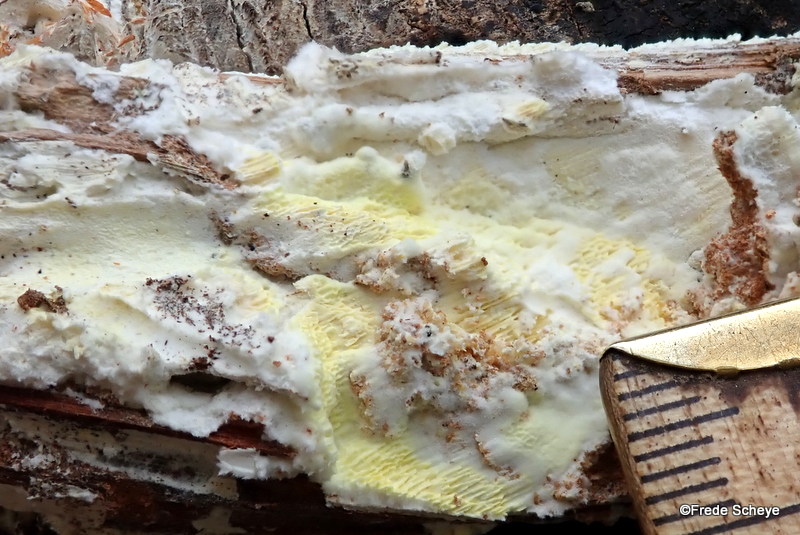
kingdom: Fungi
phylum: Basidiomycota
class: Agaricomycetes
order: Polyporales
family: Fomitopsidaceae
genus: Daedalea
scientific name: Daedalea xantha
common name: gul sejporesvamp
